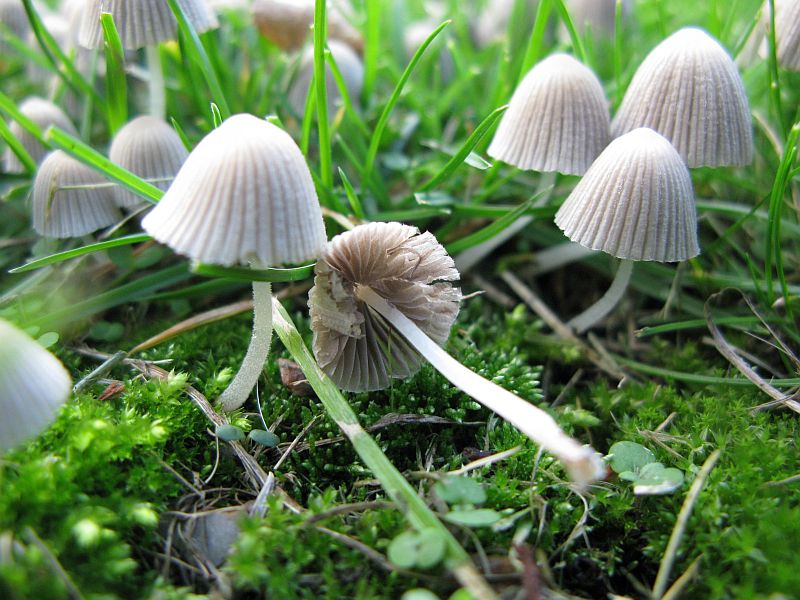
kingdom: Fungi
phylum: Basidiomycota
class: Agaricomycetes
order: Agaricales
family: Psathyrellaceae
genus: Coprinellus
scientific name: Coprinellus disseminatus
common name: bredsået blækhat
